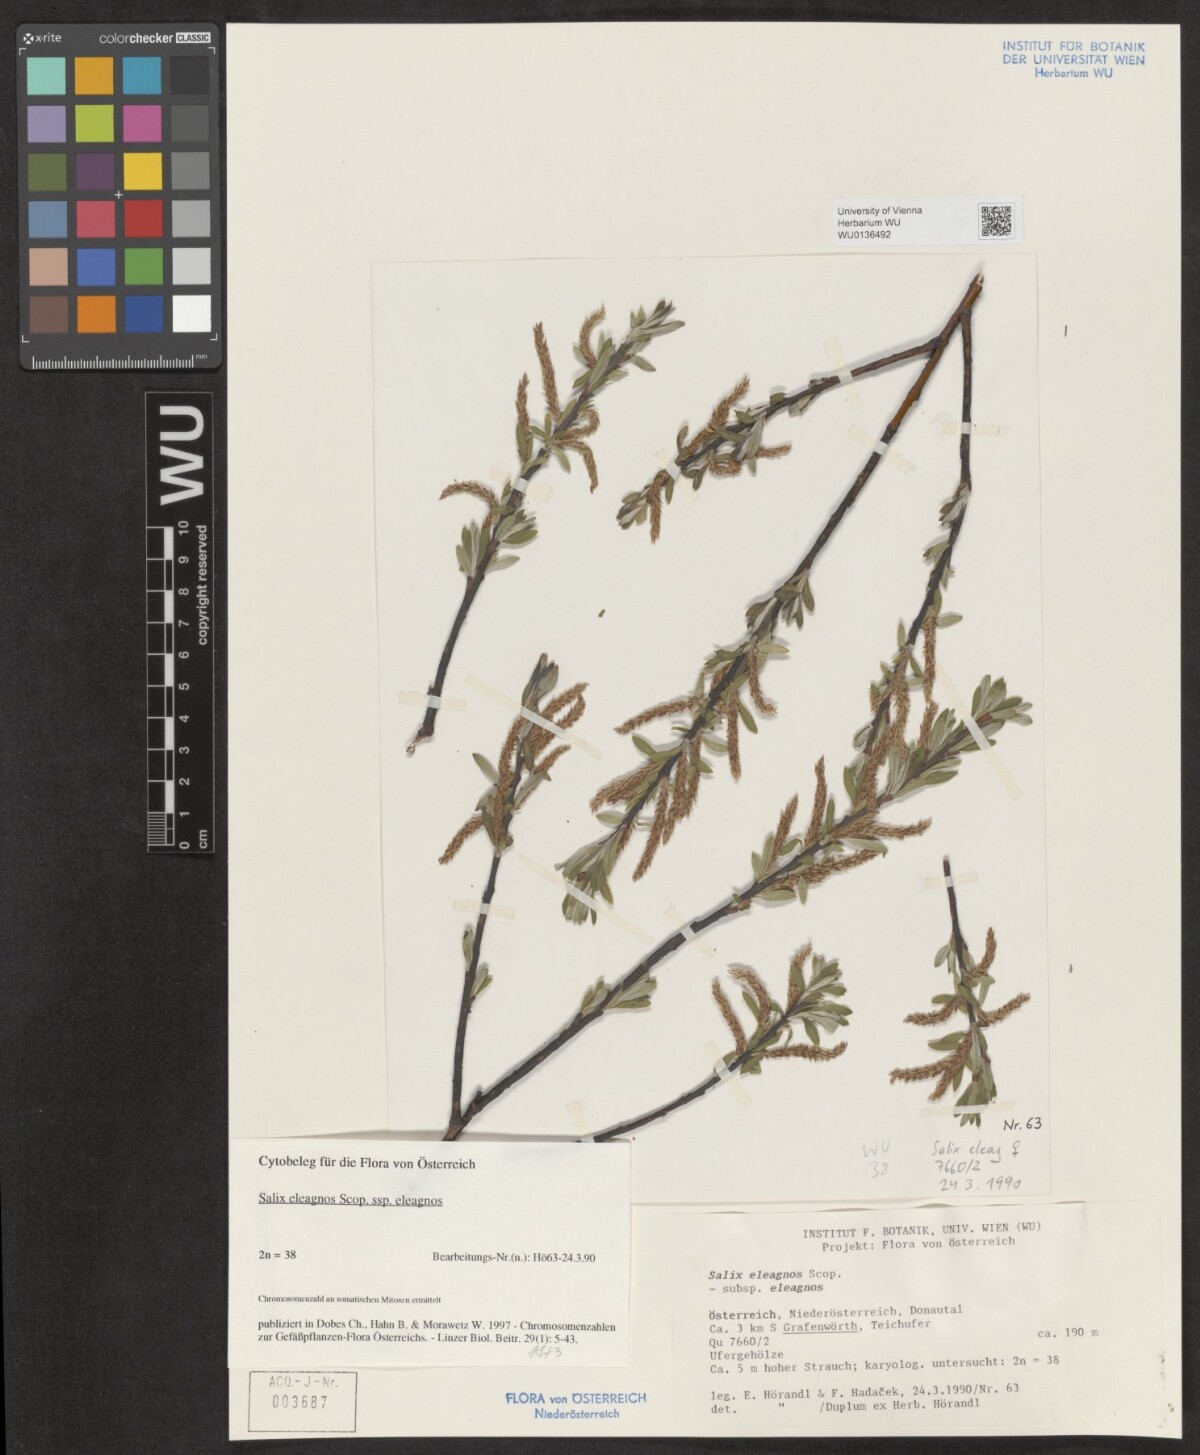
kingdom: Plantae
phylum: Tracheophyta
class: Magnoliopsida
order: Malpighiales
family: Salicaceae
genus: Salix
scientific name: Salix eleagnos
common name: Elaeagnus willow
